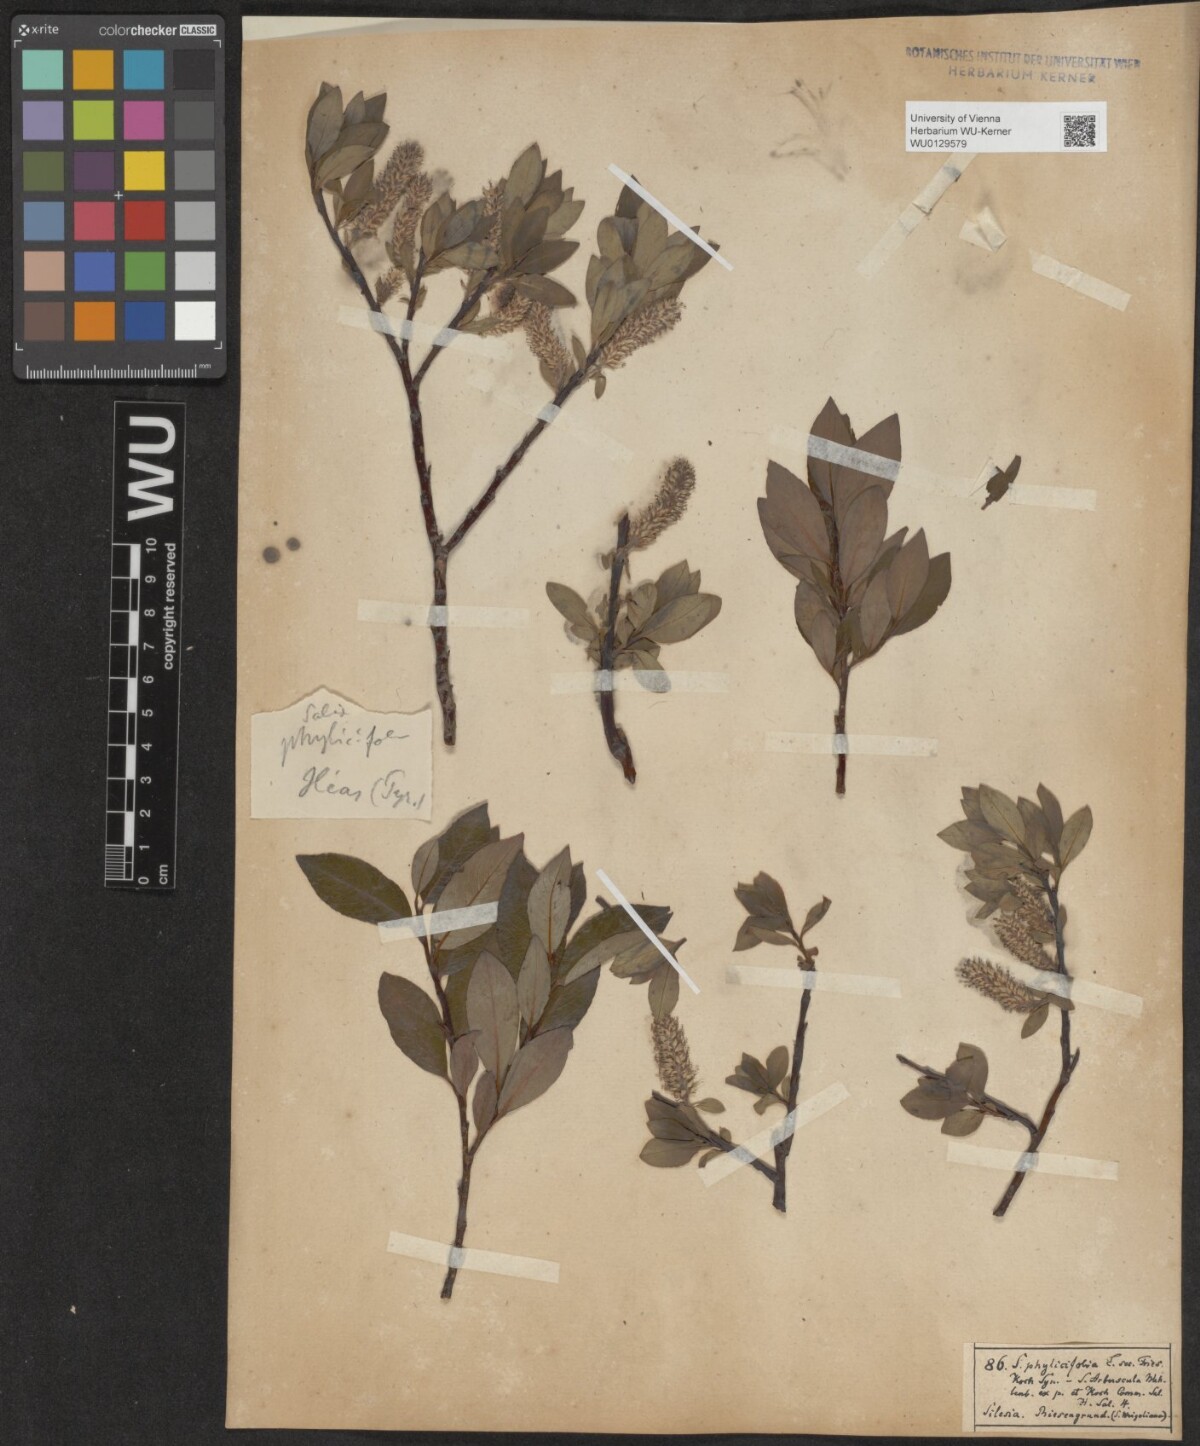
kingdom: Plantae
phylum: Tracheophyta
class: Magnoliopsida
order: Malpighiales
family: Salicaceae
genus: Salix
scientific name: Salix bicolor
